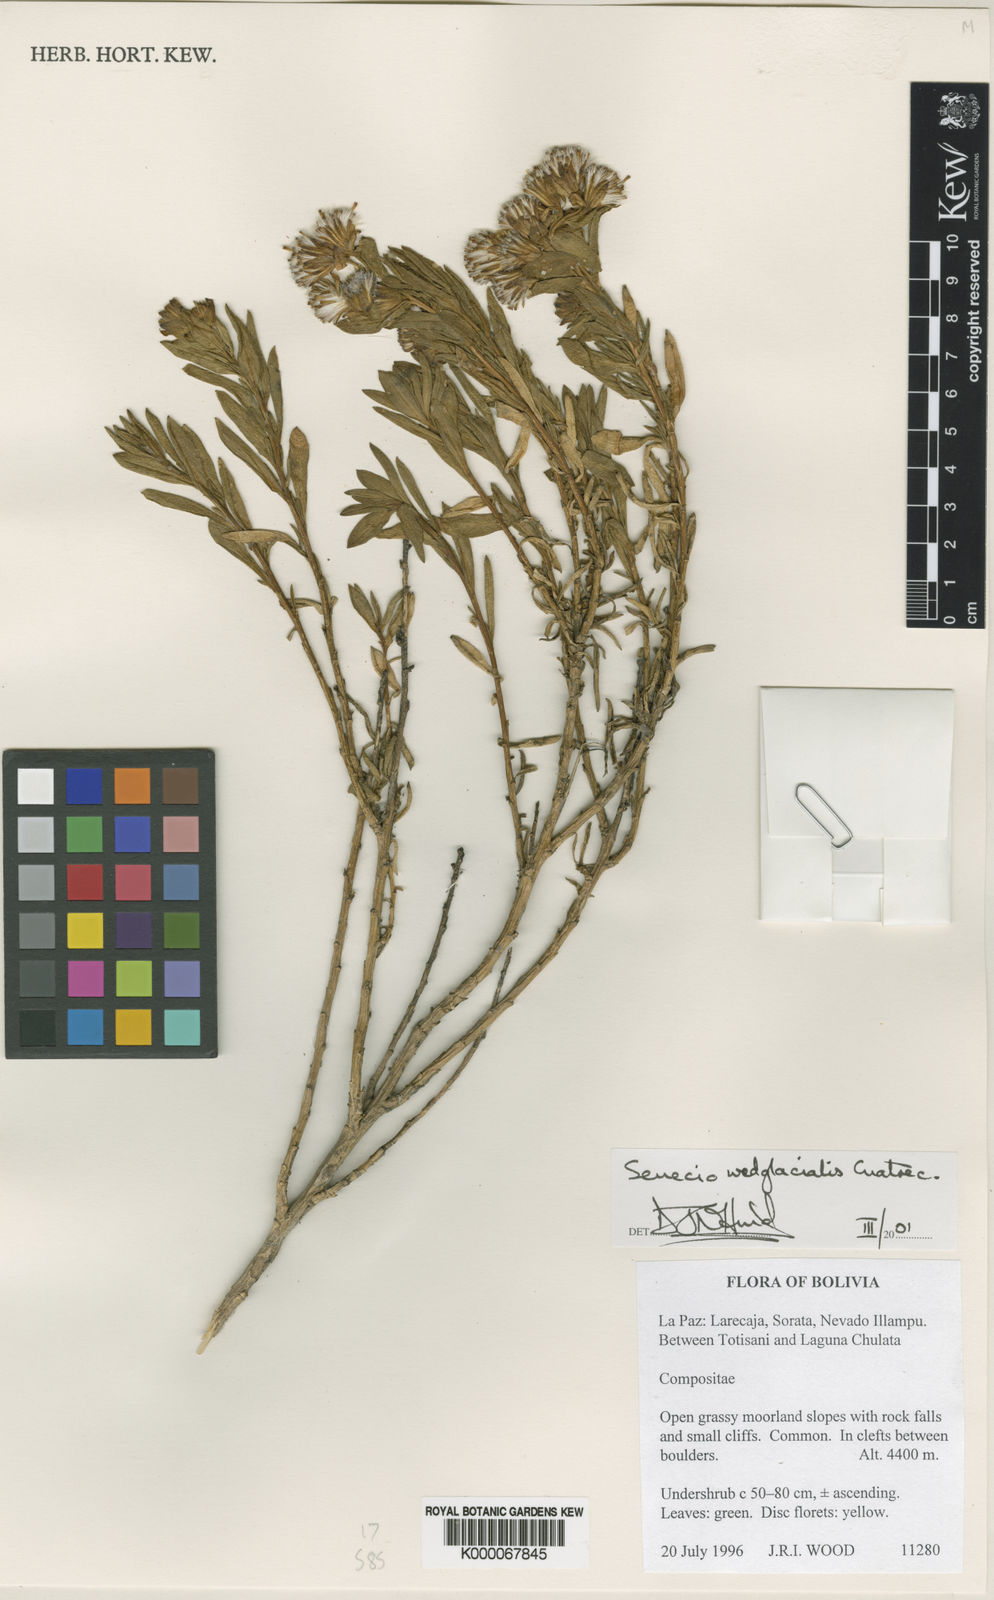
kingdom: Plantae
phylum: Tracheophyta
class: Magnoliopsida
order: Asterales
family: Asteraceae
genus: Senecio
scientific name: Senecio wedglacialis
